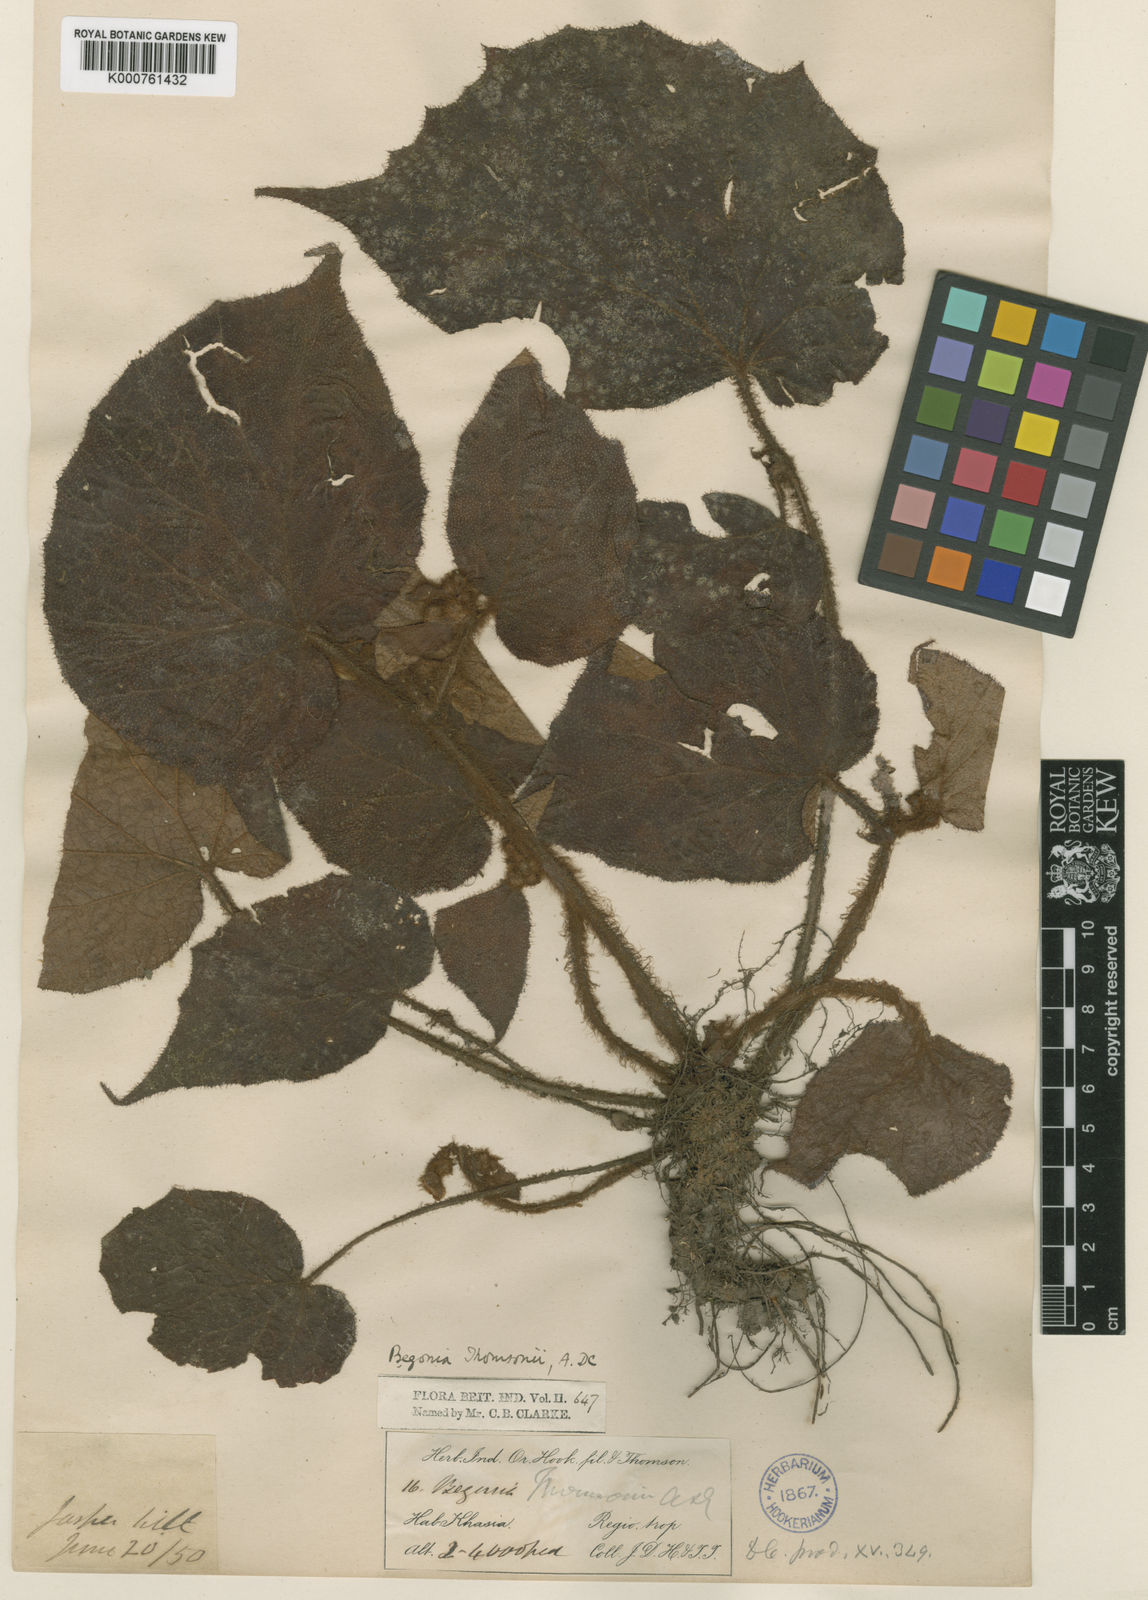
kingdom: Plantae
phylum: Tracheophyta
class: Magnoliopsida
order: Cucurbitales
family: Begoniaceae
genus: Begonia
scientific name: Begonia thomsonii
